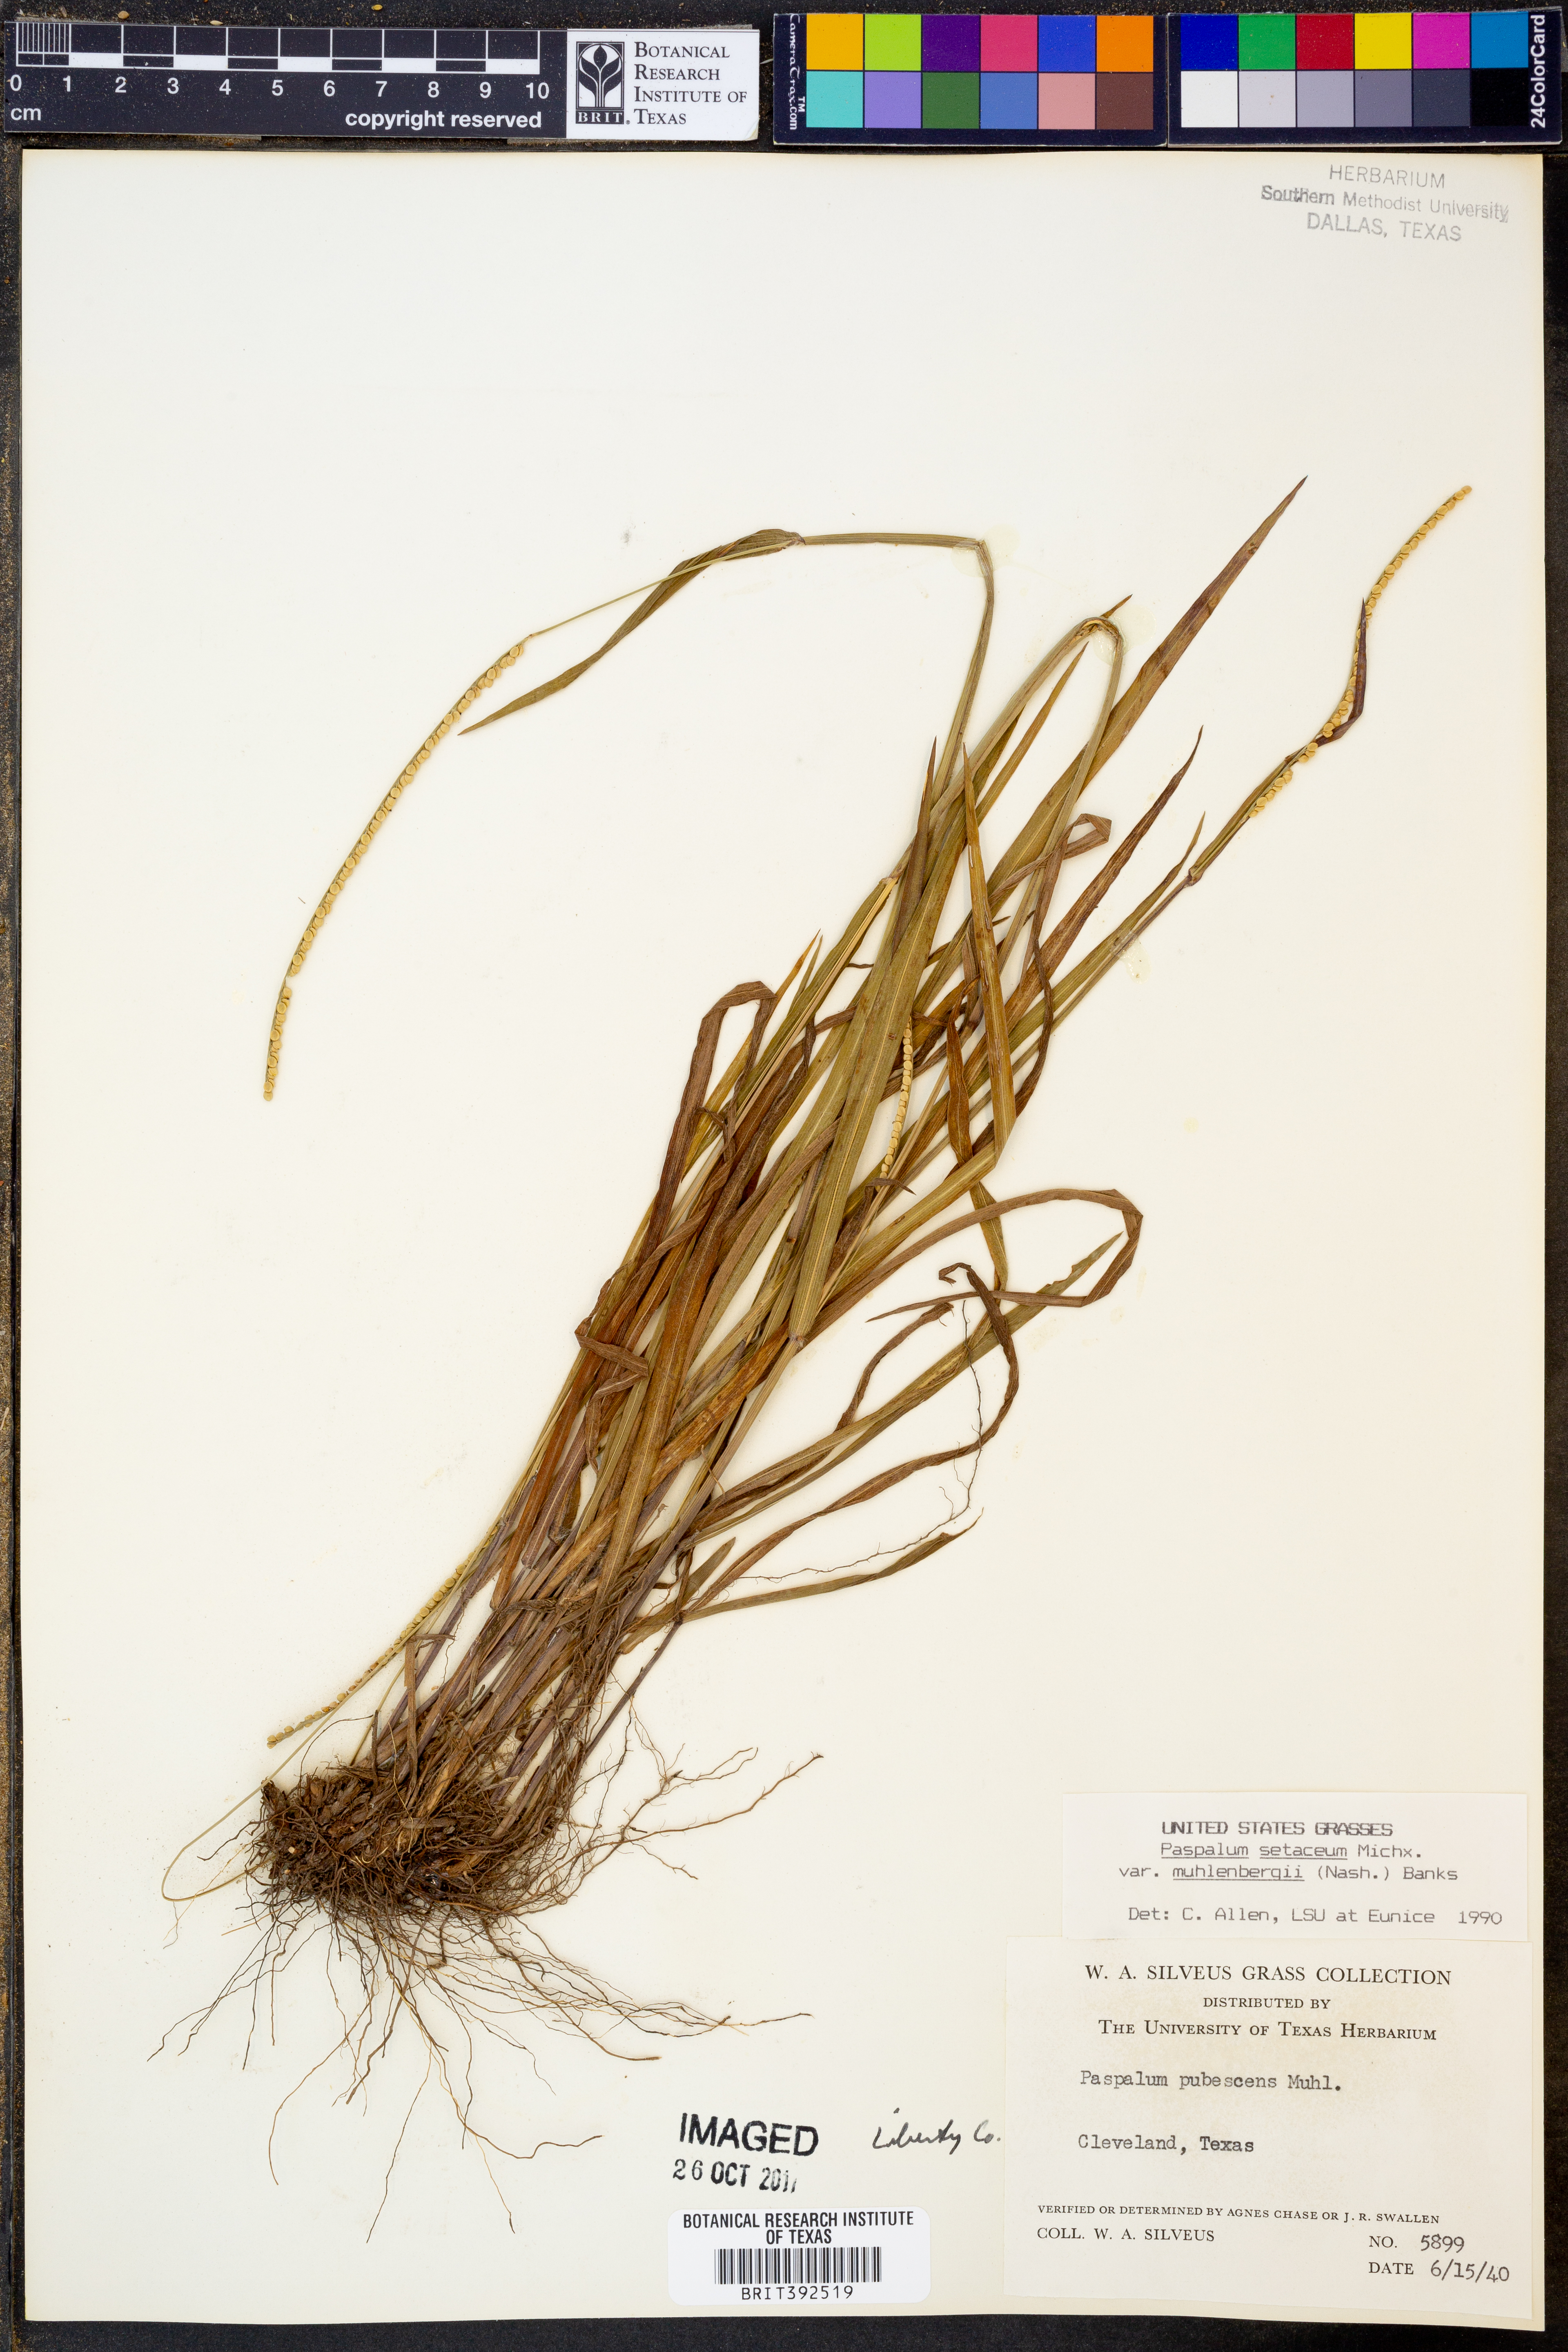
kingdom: Plantae
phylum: Tracheophyta
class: Liliopsida
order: Poales
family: Poaceae
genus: Paspalum
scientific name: Paspalum setaceum
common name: Slender paspalum
